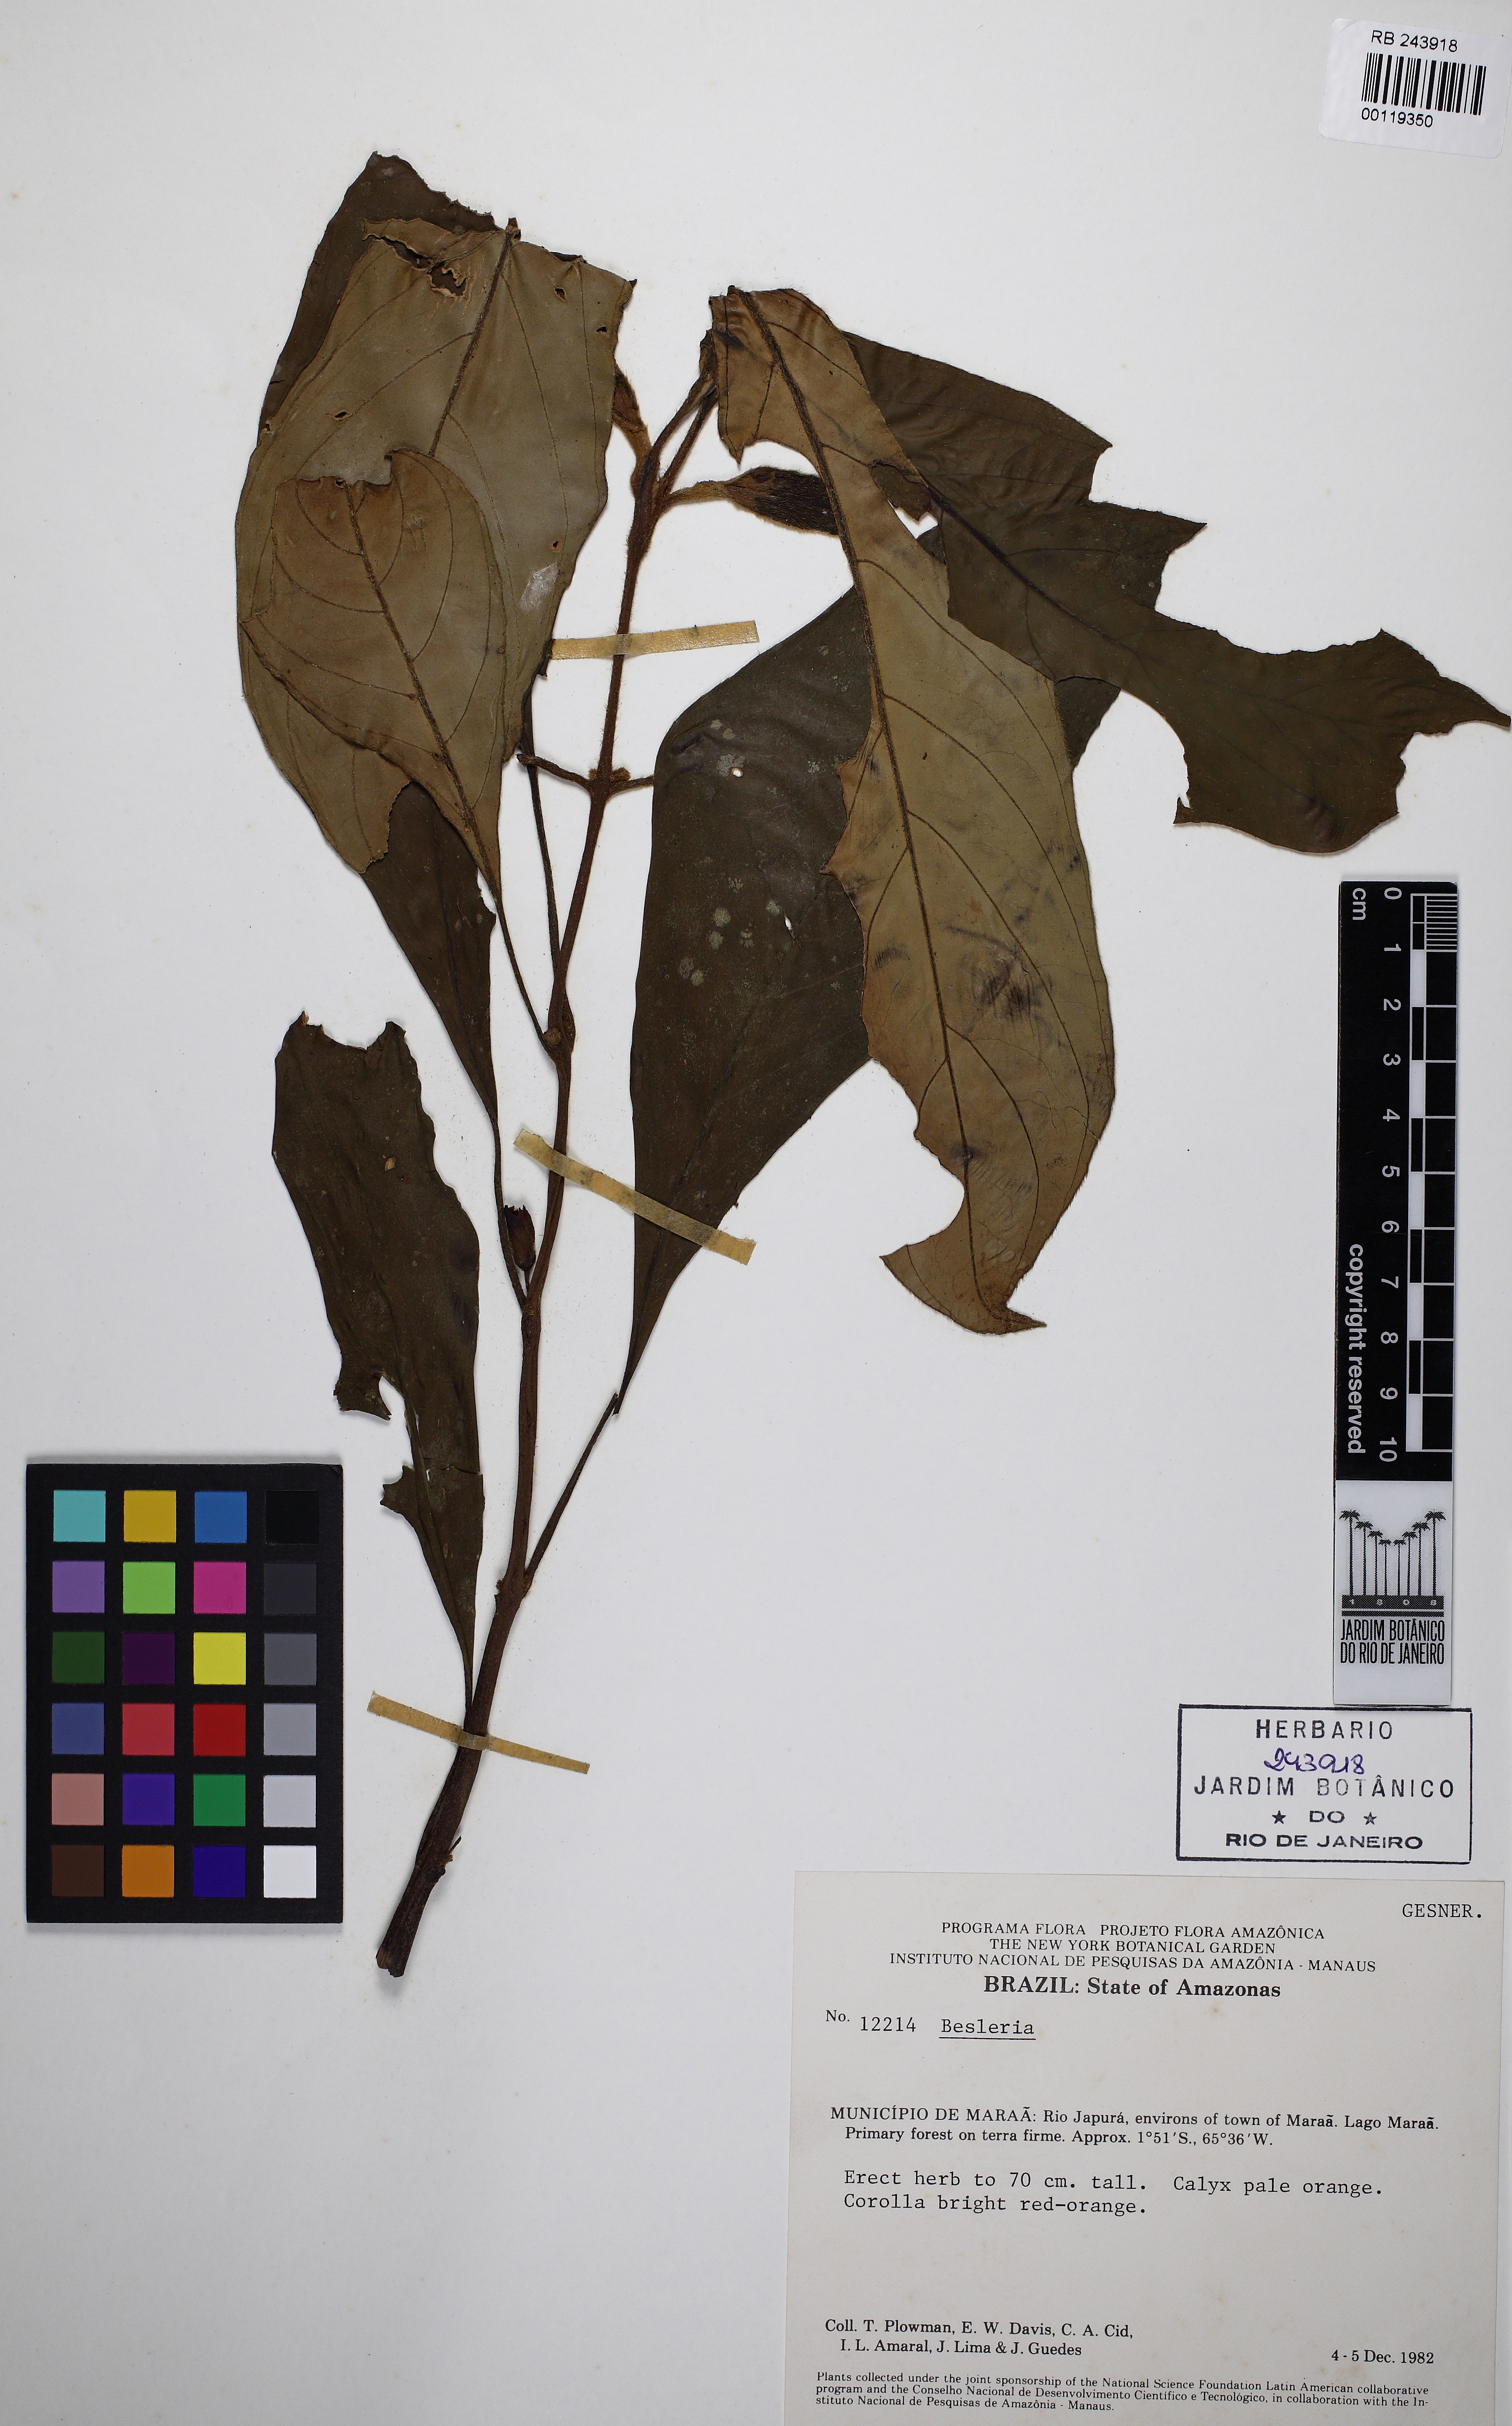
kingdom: Plantae
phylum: Tracheophyta
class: Magnoliopsida
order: Lamiales
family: Gesneriaceae
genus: Besleria
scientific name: Besleria aggregata
